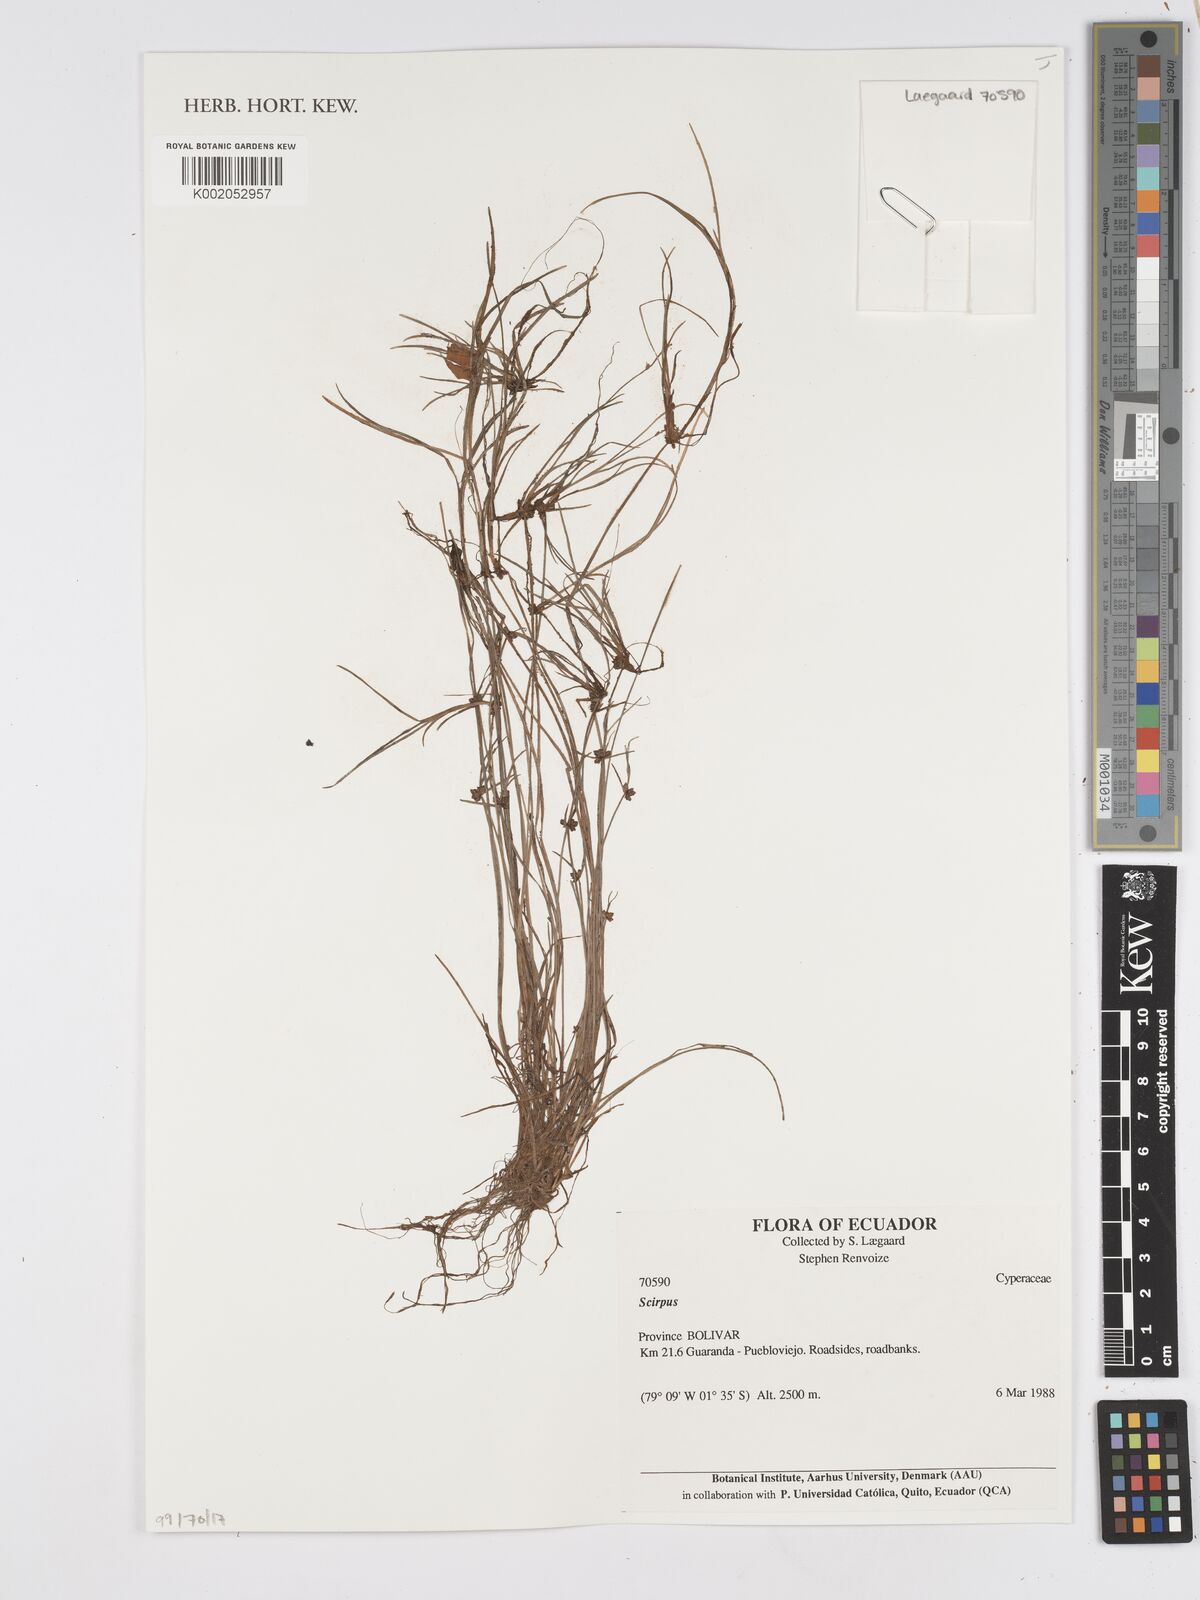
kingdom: Plantae
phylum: Tracheophyta
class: Liliopsida
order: Poales
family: Cyperaceae
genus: Scirpus
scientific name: Scirpus
